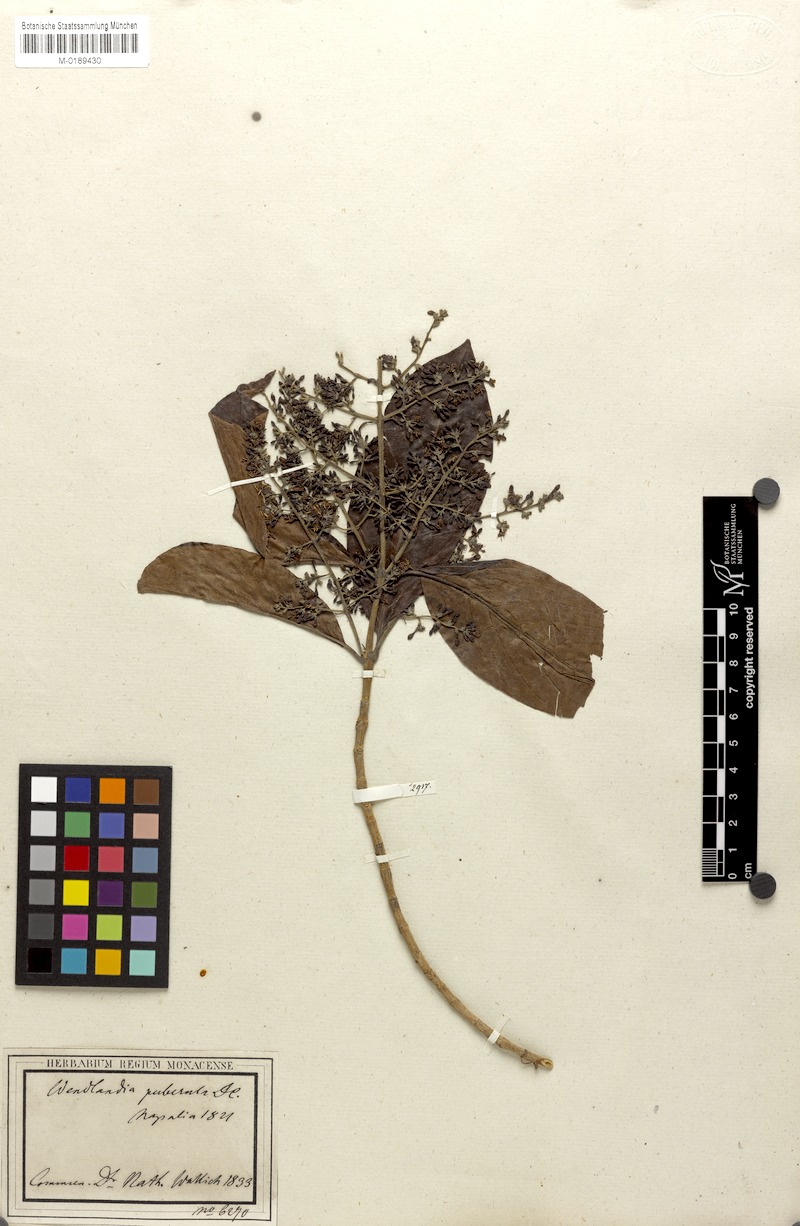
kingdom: Plantae
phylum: Tracheophyta
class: Magnoliopsida
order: Gentianales
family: Rubiaceae
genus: Wendlandia
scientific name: Wendlandia puberula
